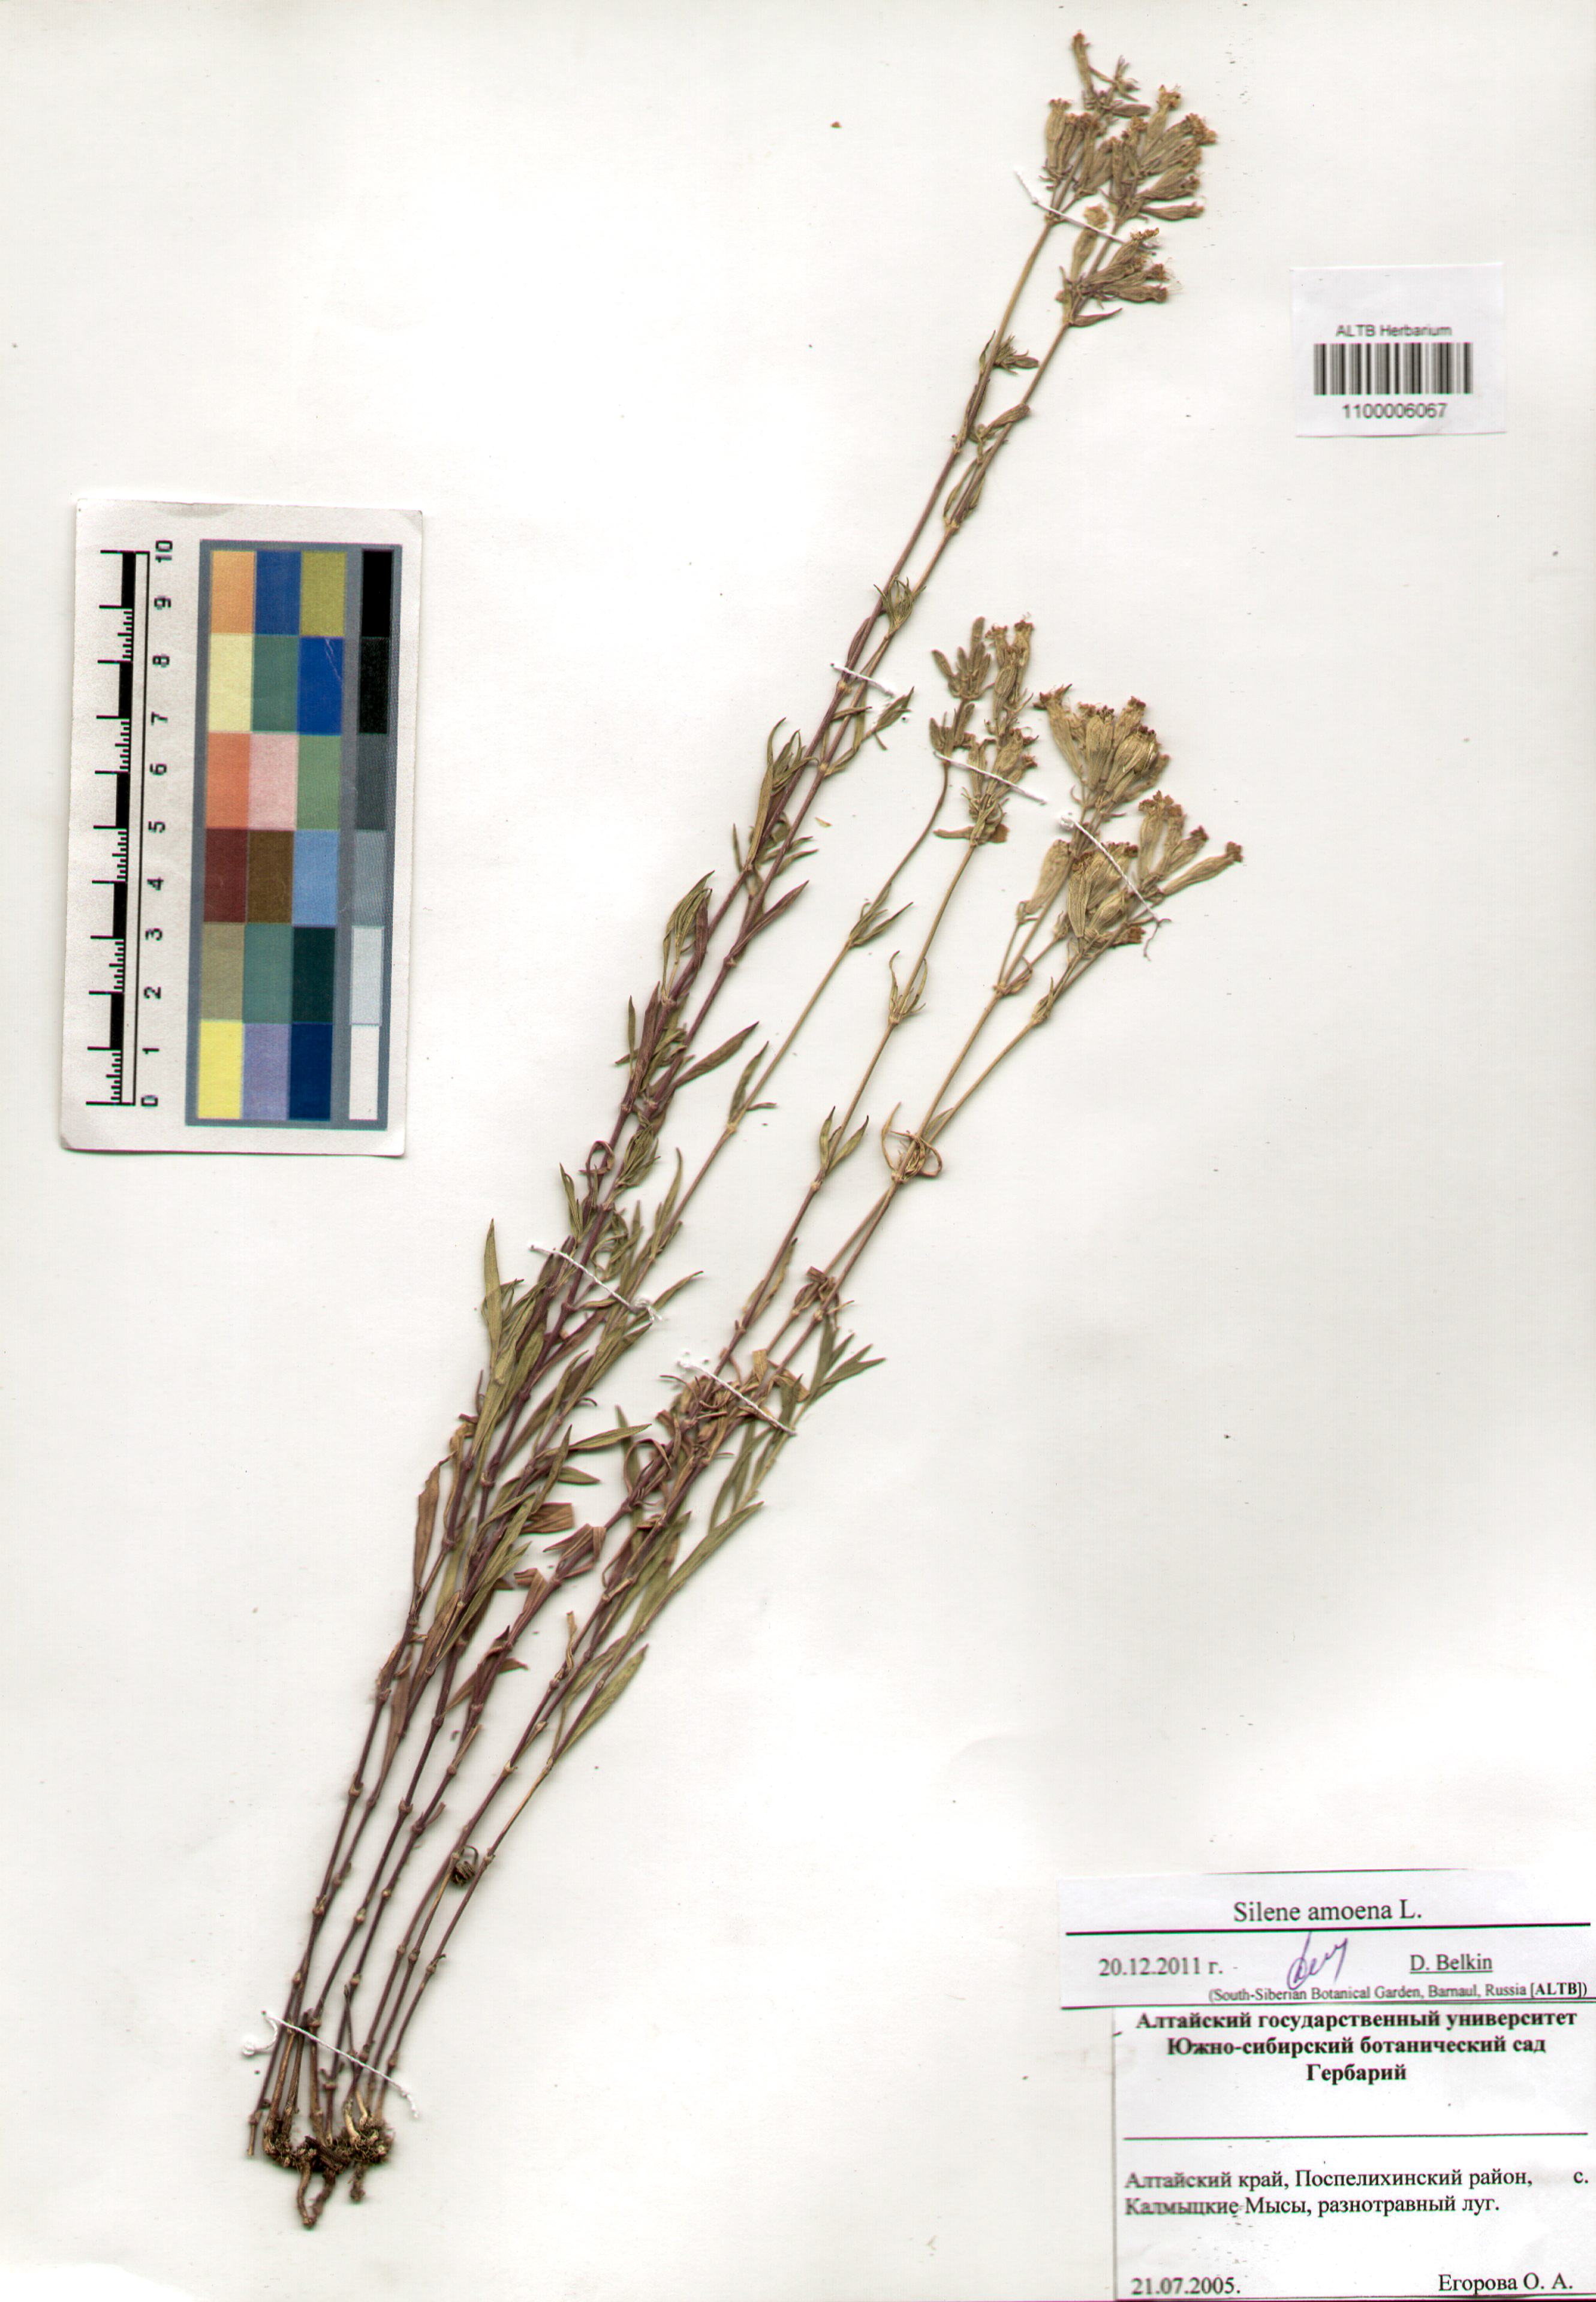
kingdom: Plantae
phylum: Tracheophyta
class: Magnoliopsida
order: Caryophyllales
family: Caryophyllaceae
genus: Silene
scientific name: Silene amoena
